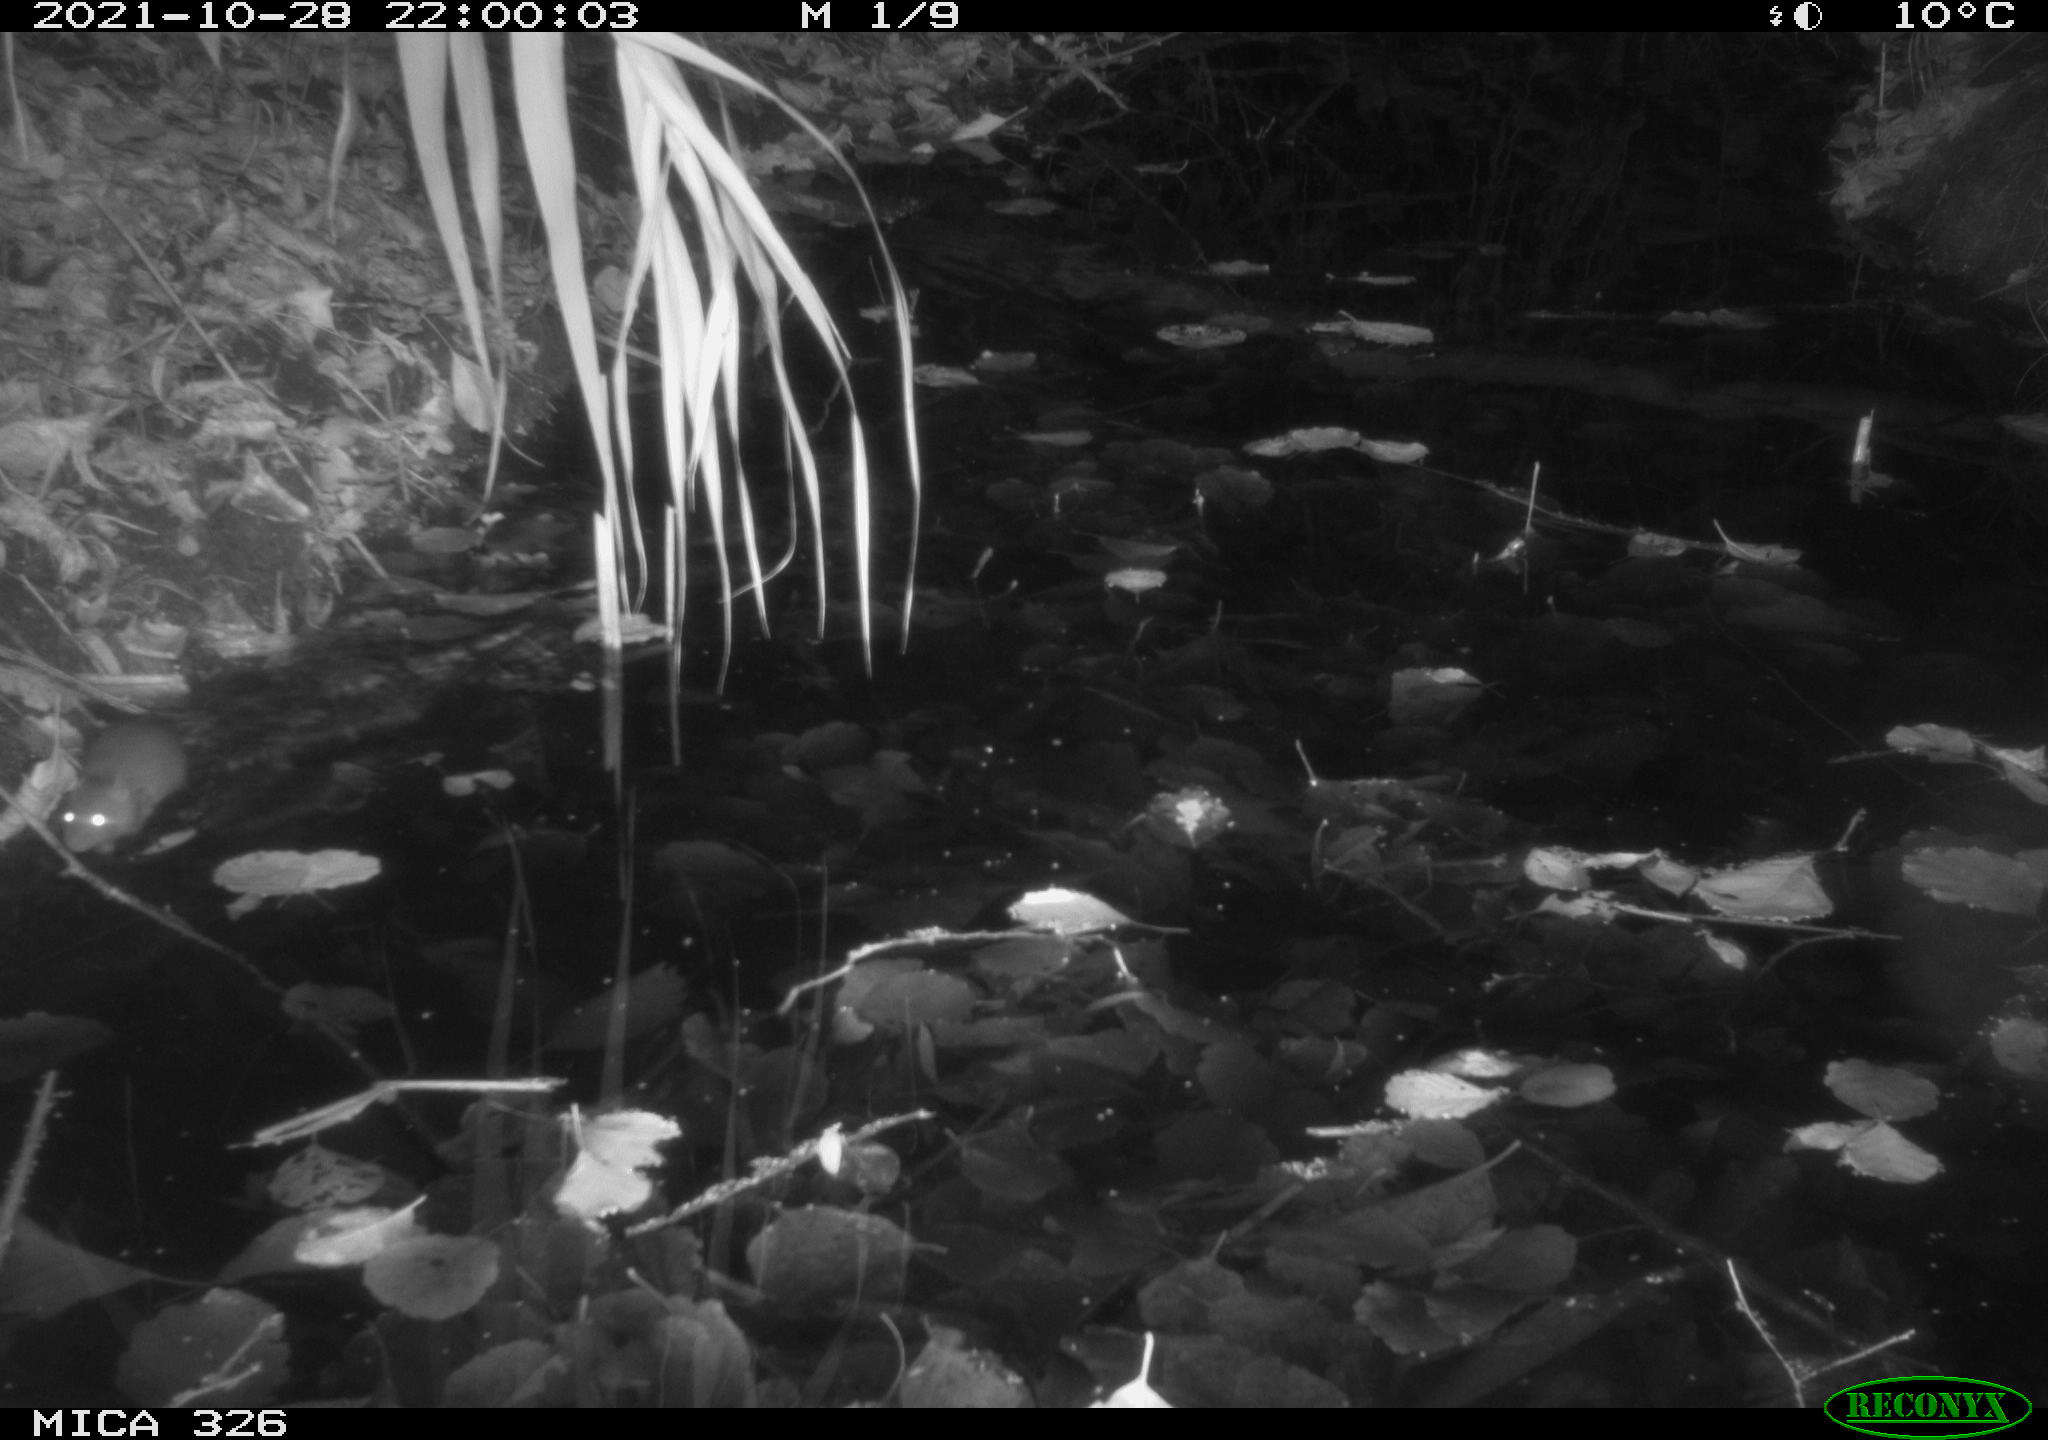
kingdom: Animalia
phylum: Chordata
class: Mammalia
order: Rodentia
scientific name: Rodentia
